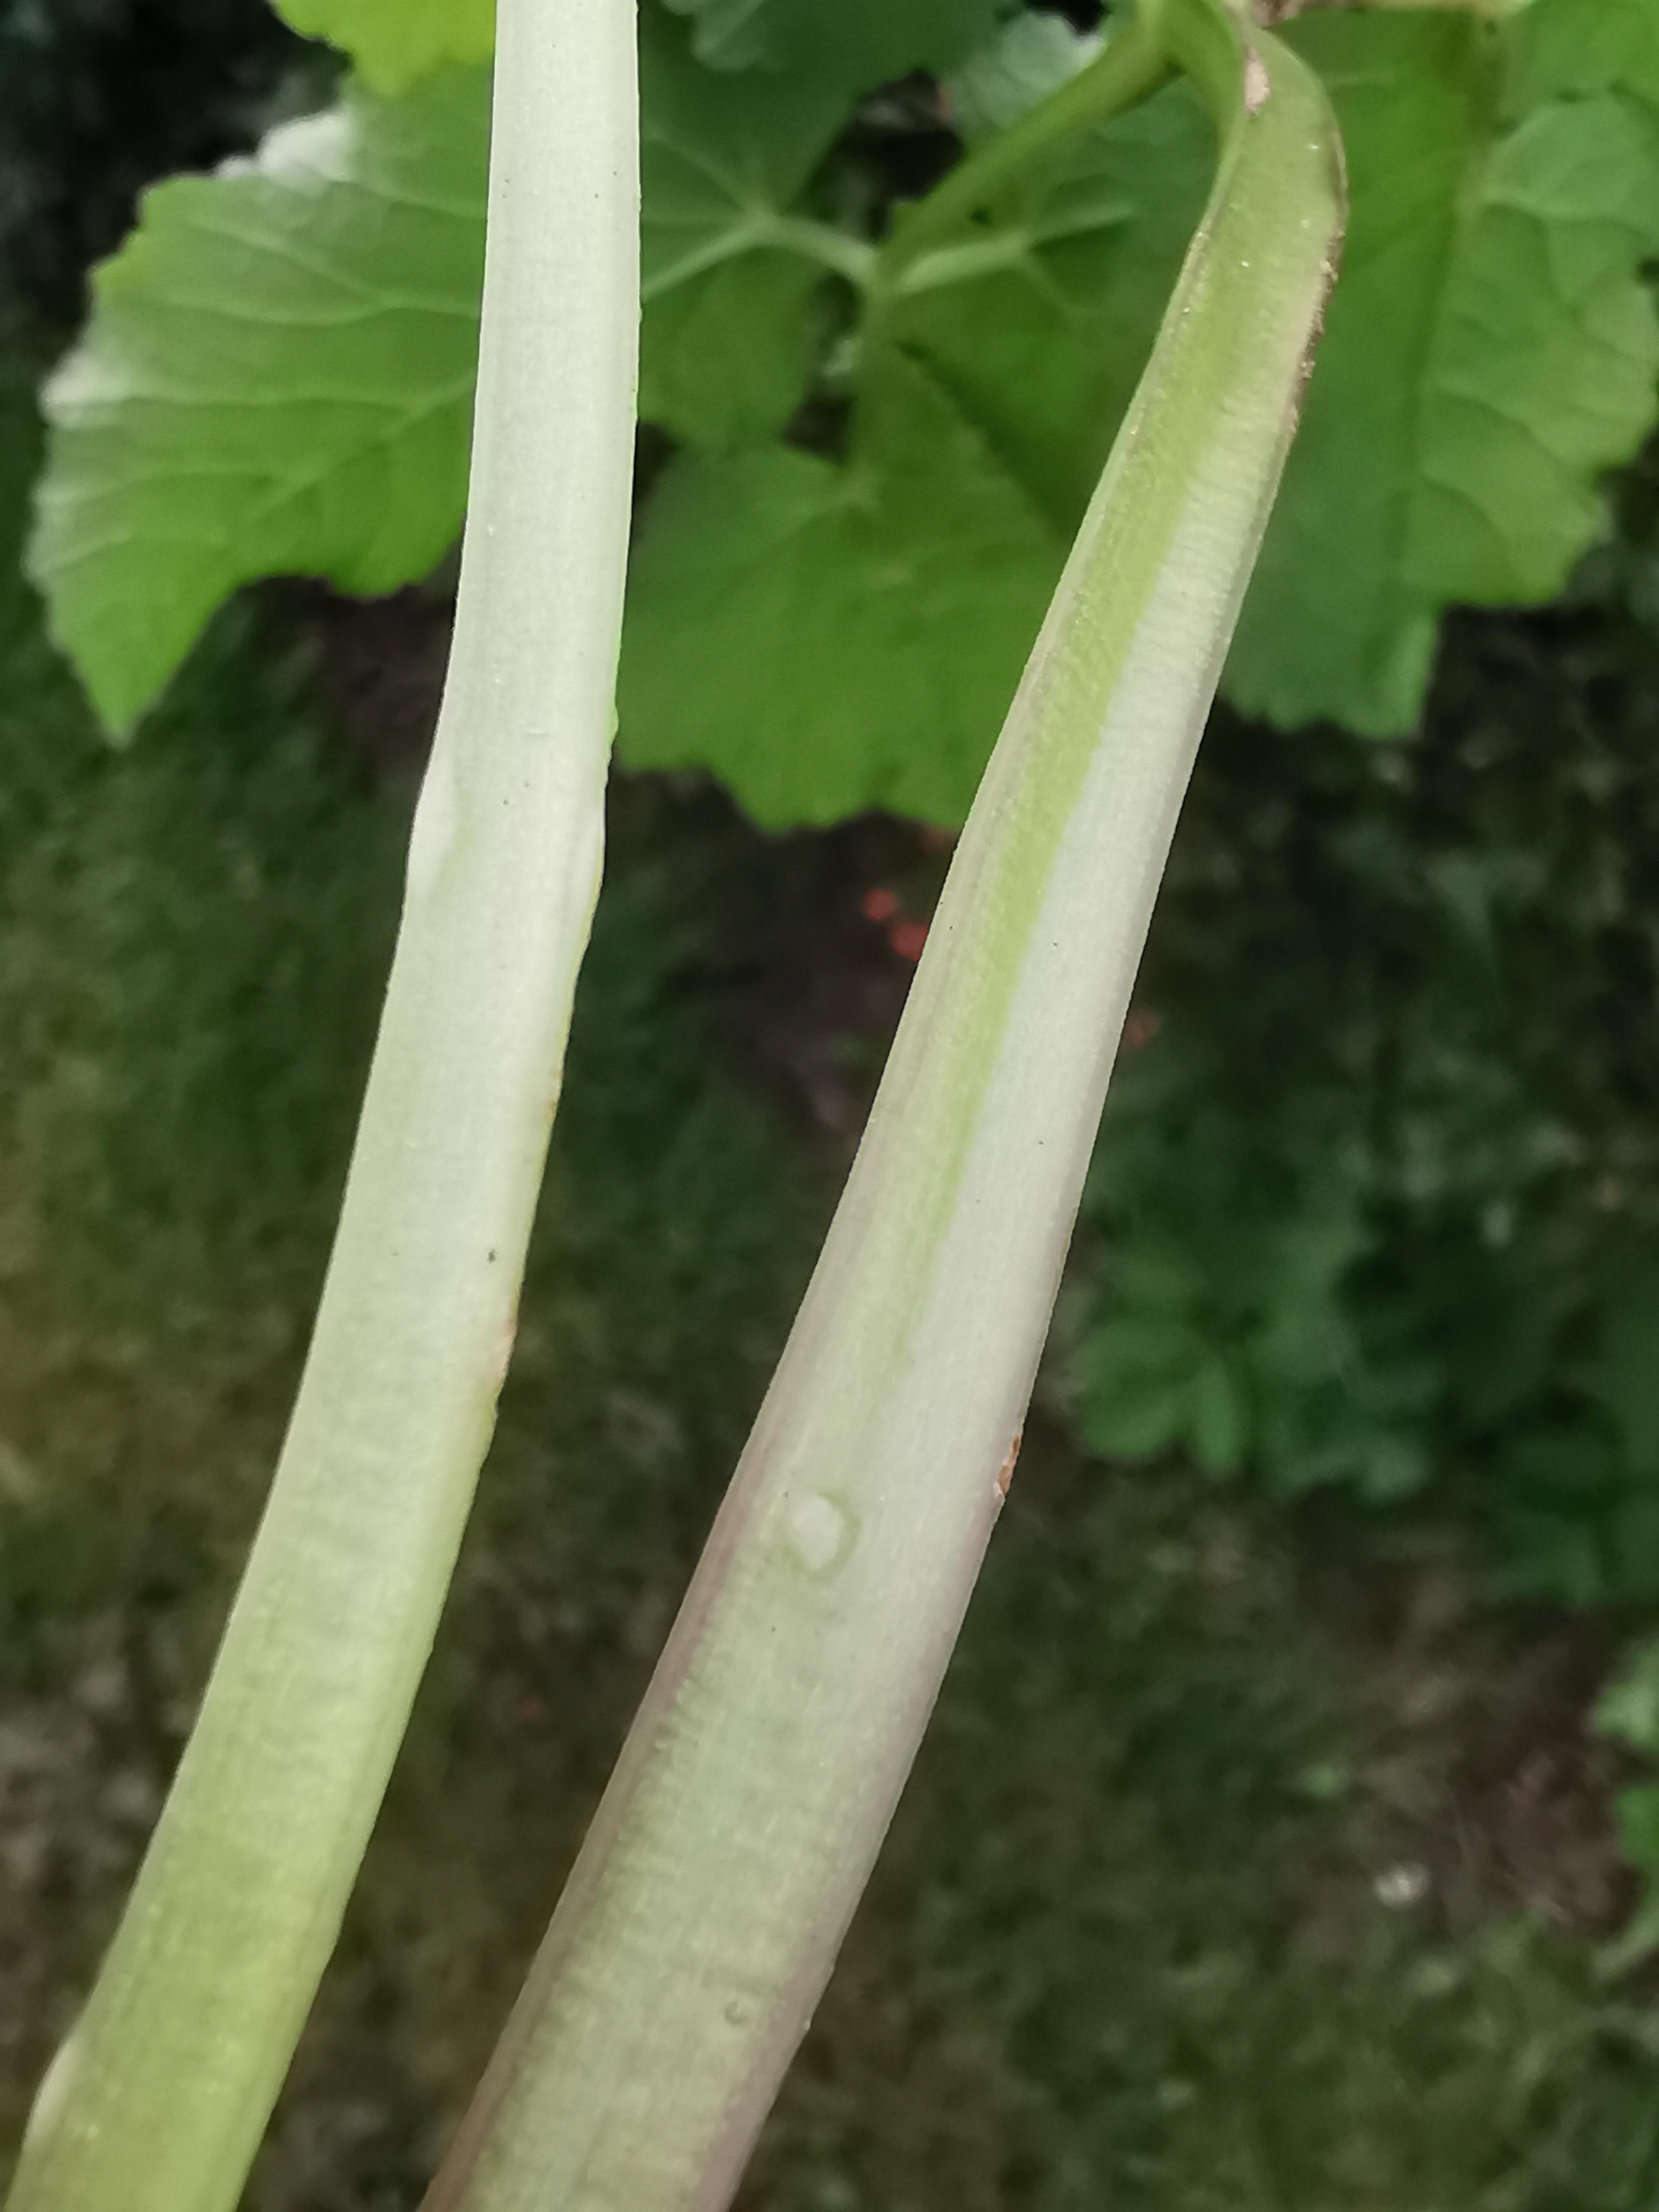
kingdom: Fungi
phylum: Ascomycota
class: Taphrinomycetes
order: Taphrinales
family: Taphrinaceae
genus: Protomyces
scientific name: Protomyces macrosporus
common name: skvalderkål-vablesæk
